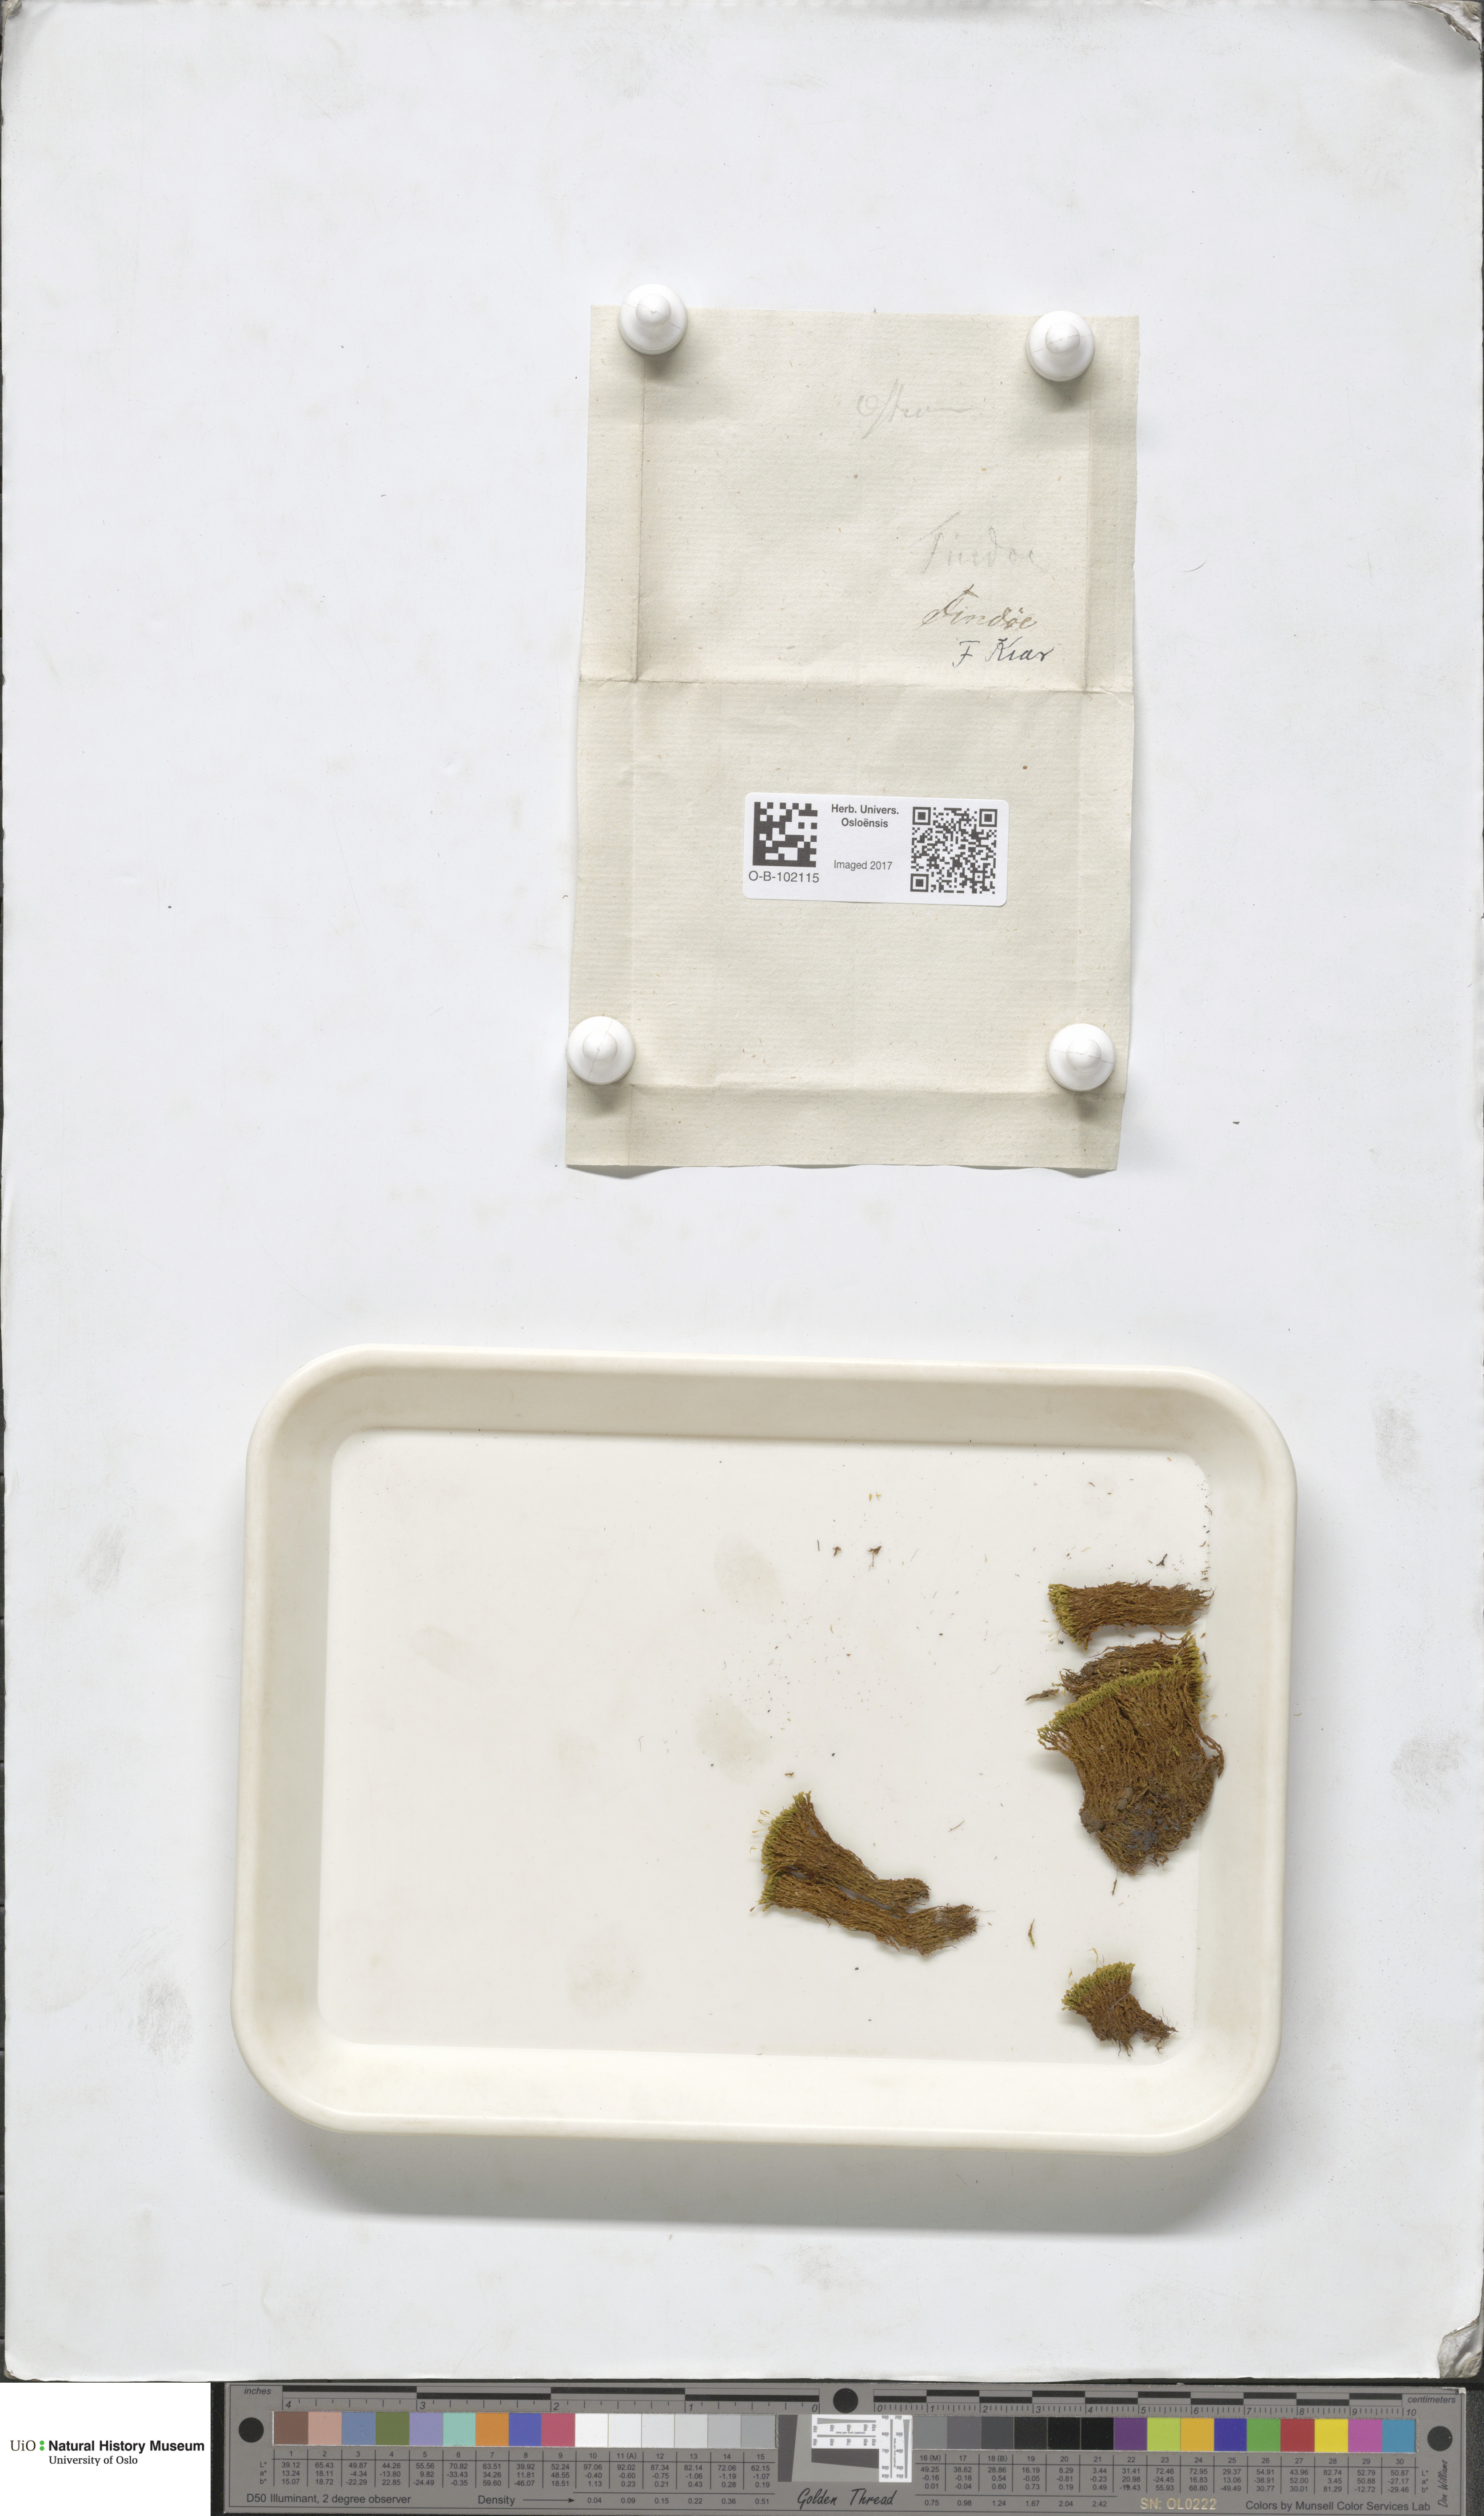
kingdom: Plantae
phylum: Bryophyta
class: Bryopsida
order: Pottiales
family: Pottiaceae
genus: Anoectangium
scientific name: Anoectangium aestivum
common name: Summer-moss
